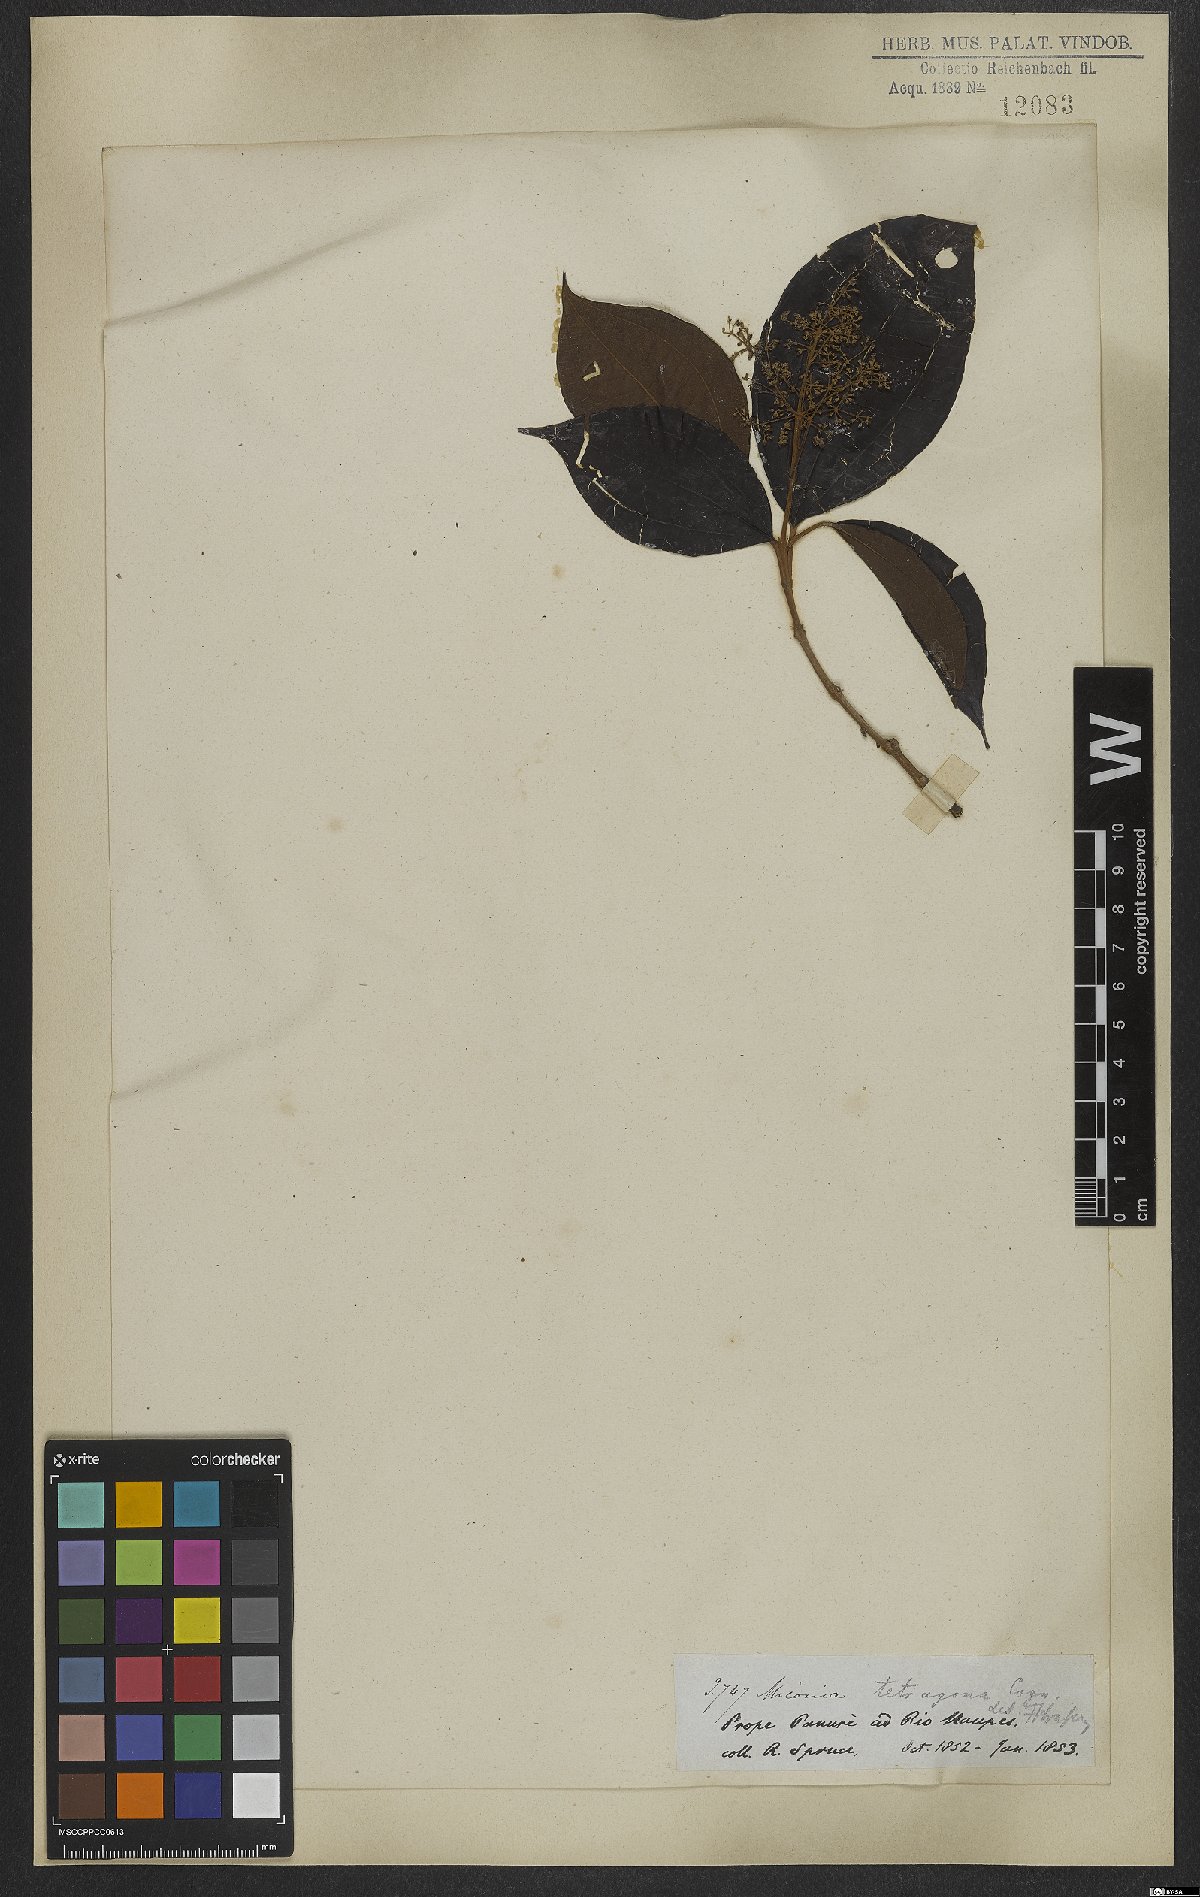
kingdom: Plantae
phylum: Tracheophyta
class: Magnoliopsida
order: Myrtales
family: Melastomataceae
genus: Miconia
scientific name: Miconia tetragona
